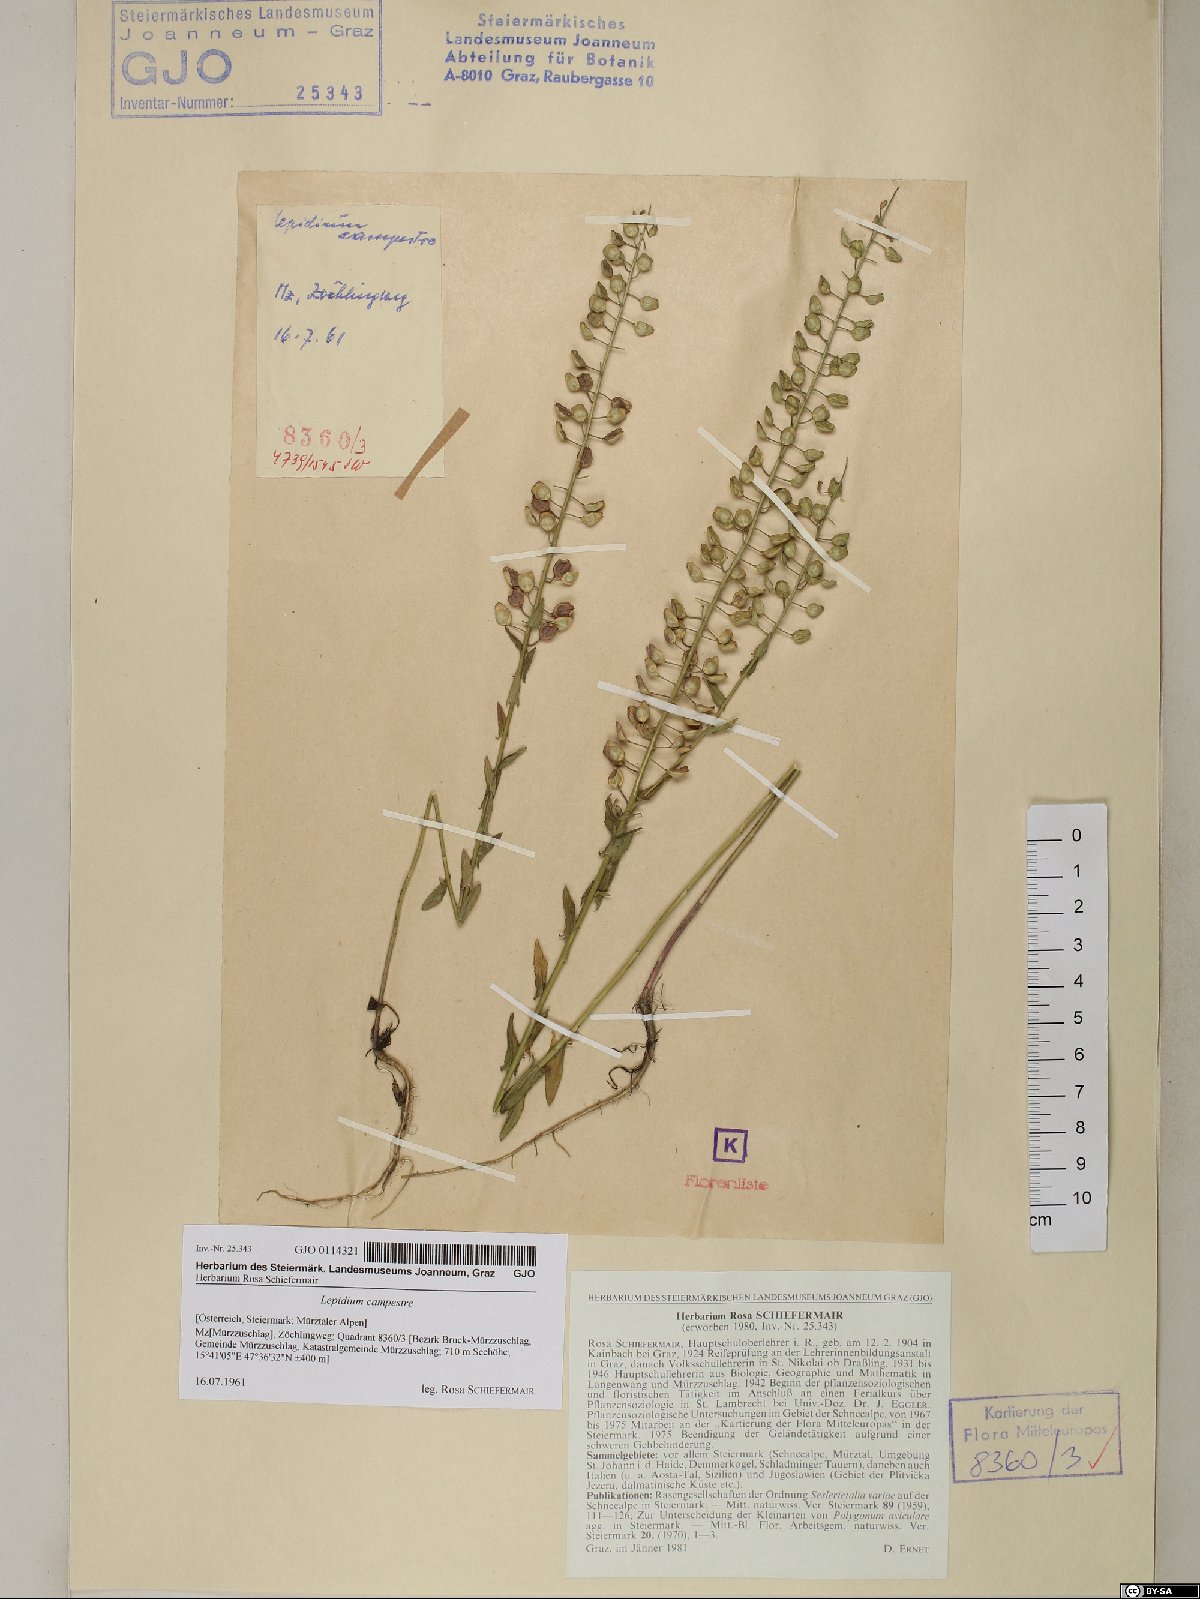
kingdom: Plantae
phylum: Tracheophyta
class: Magnoliopsida
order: Brassicales
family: Brassicaceae
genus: Lepidium
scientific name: Lepidium campestre
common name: Field pepperwort
